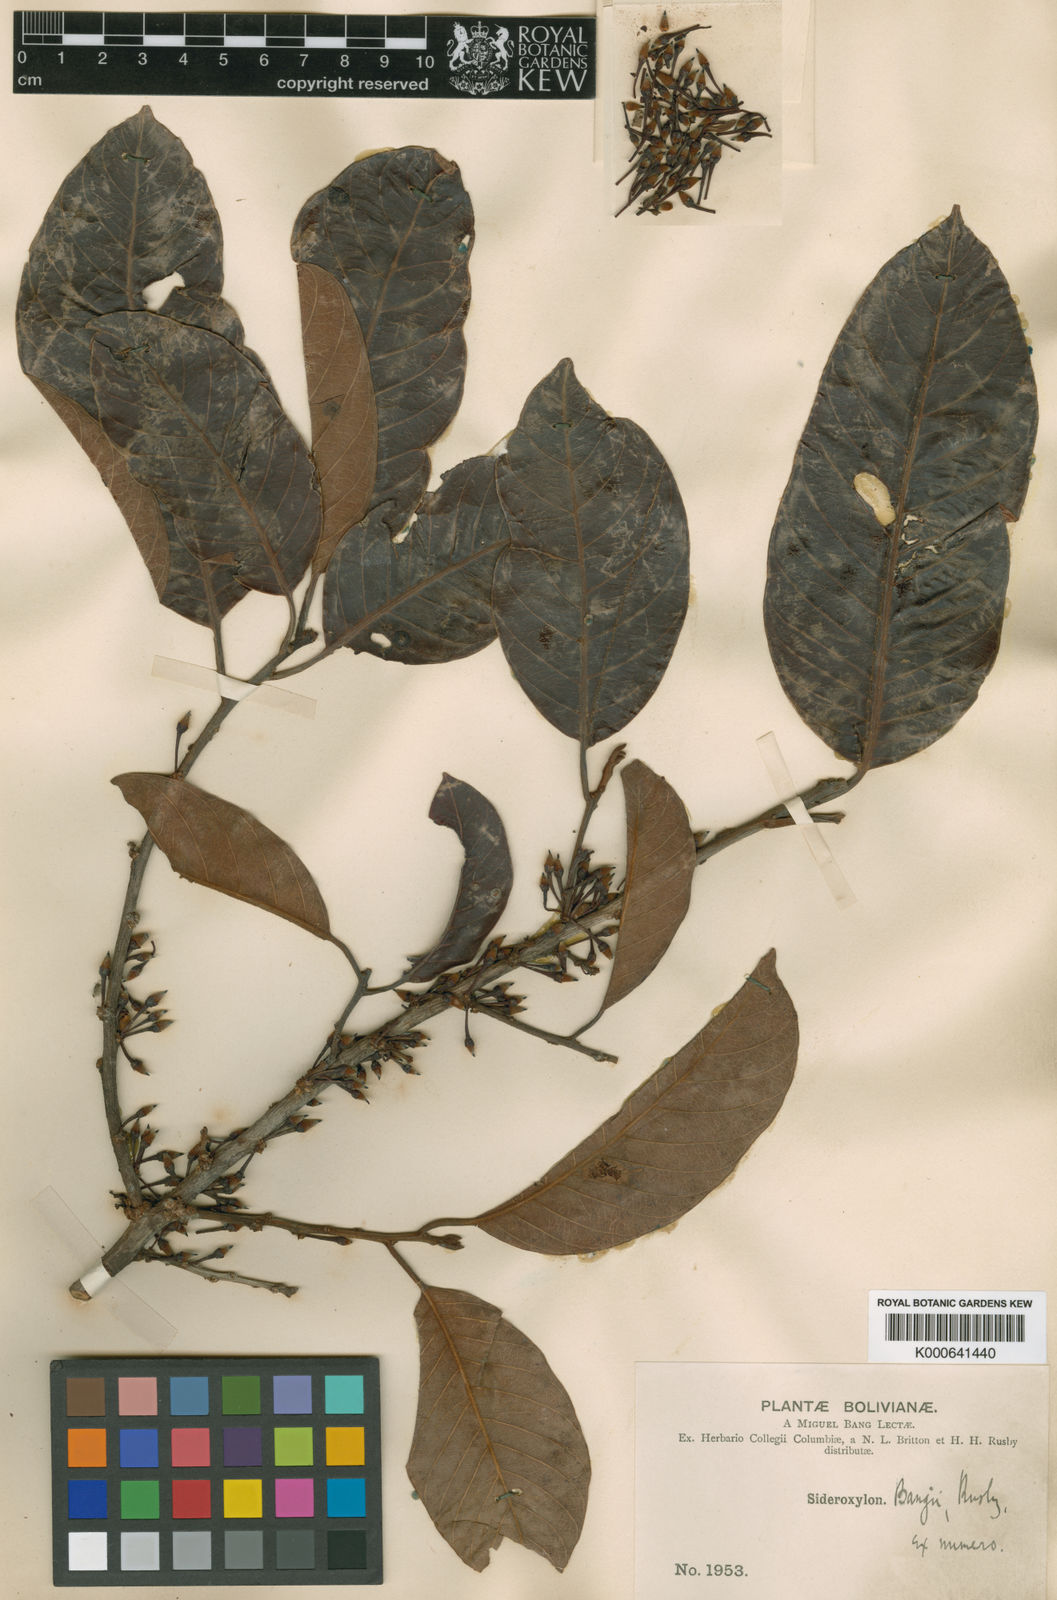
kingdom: Plantae
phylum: Tracheophyta
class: Magnoliopsida
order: Ericales
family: Sapotaceae
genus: Pouteria
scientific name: Pouteria bangii
